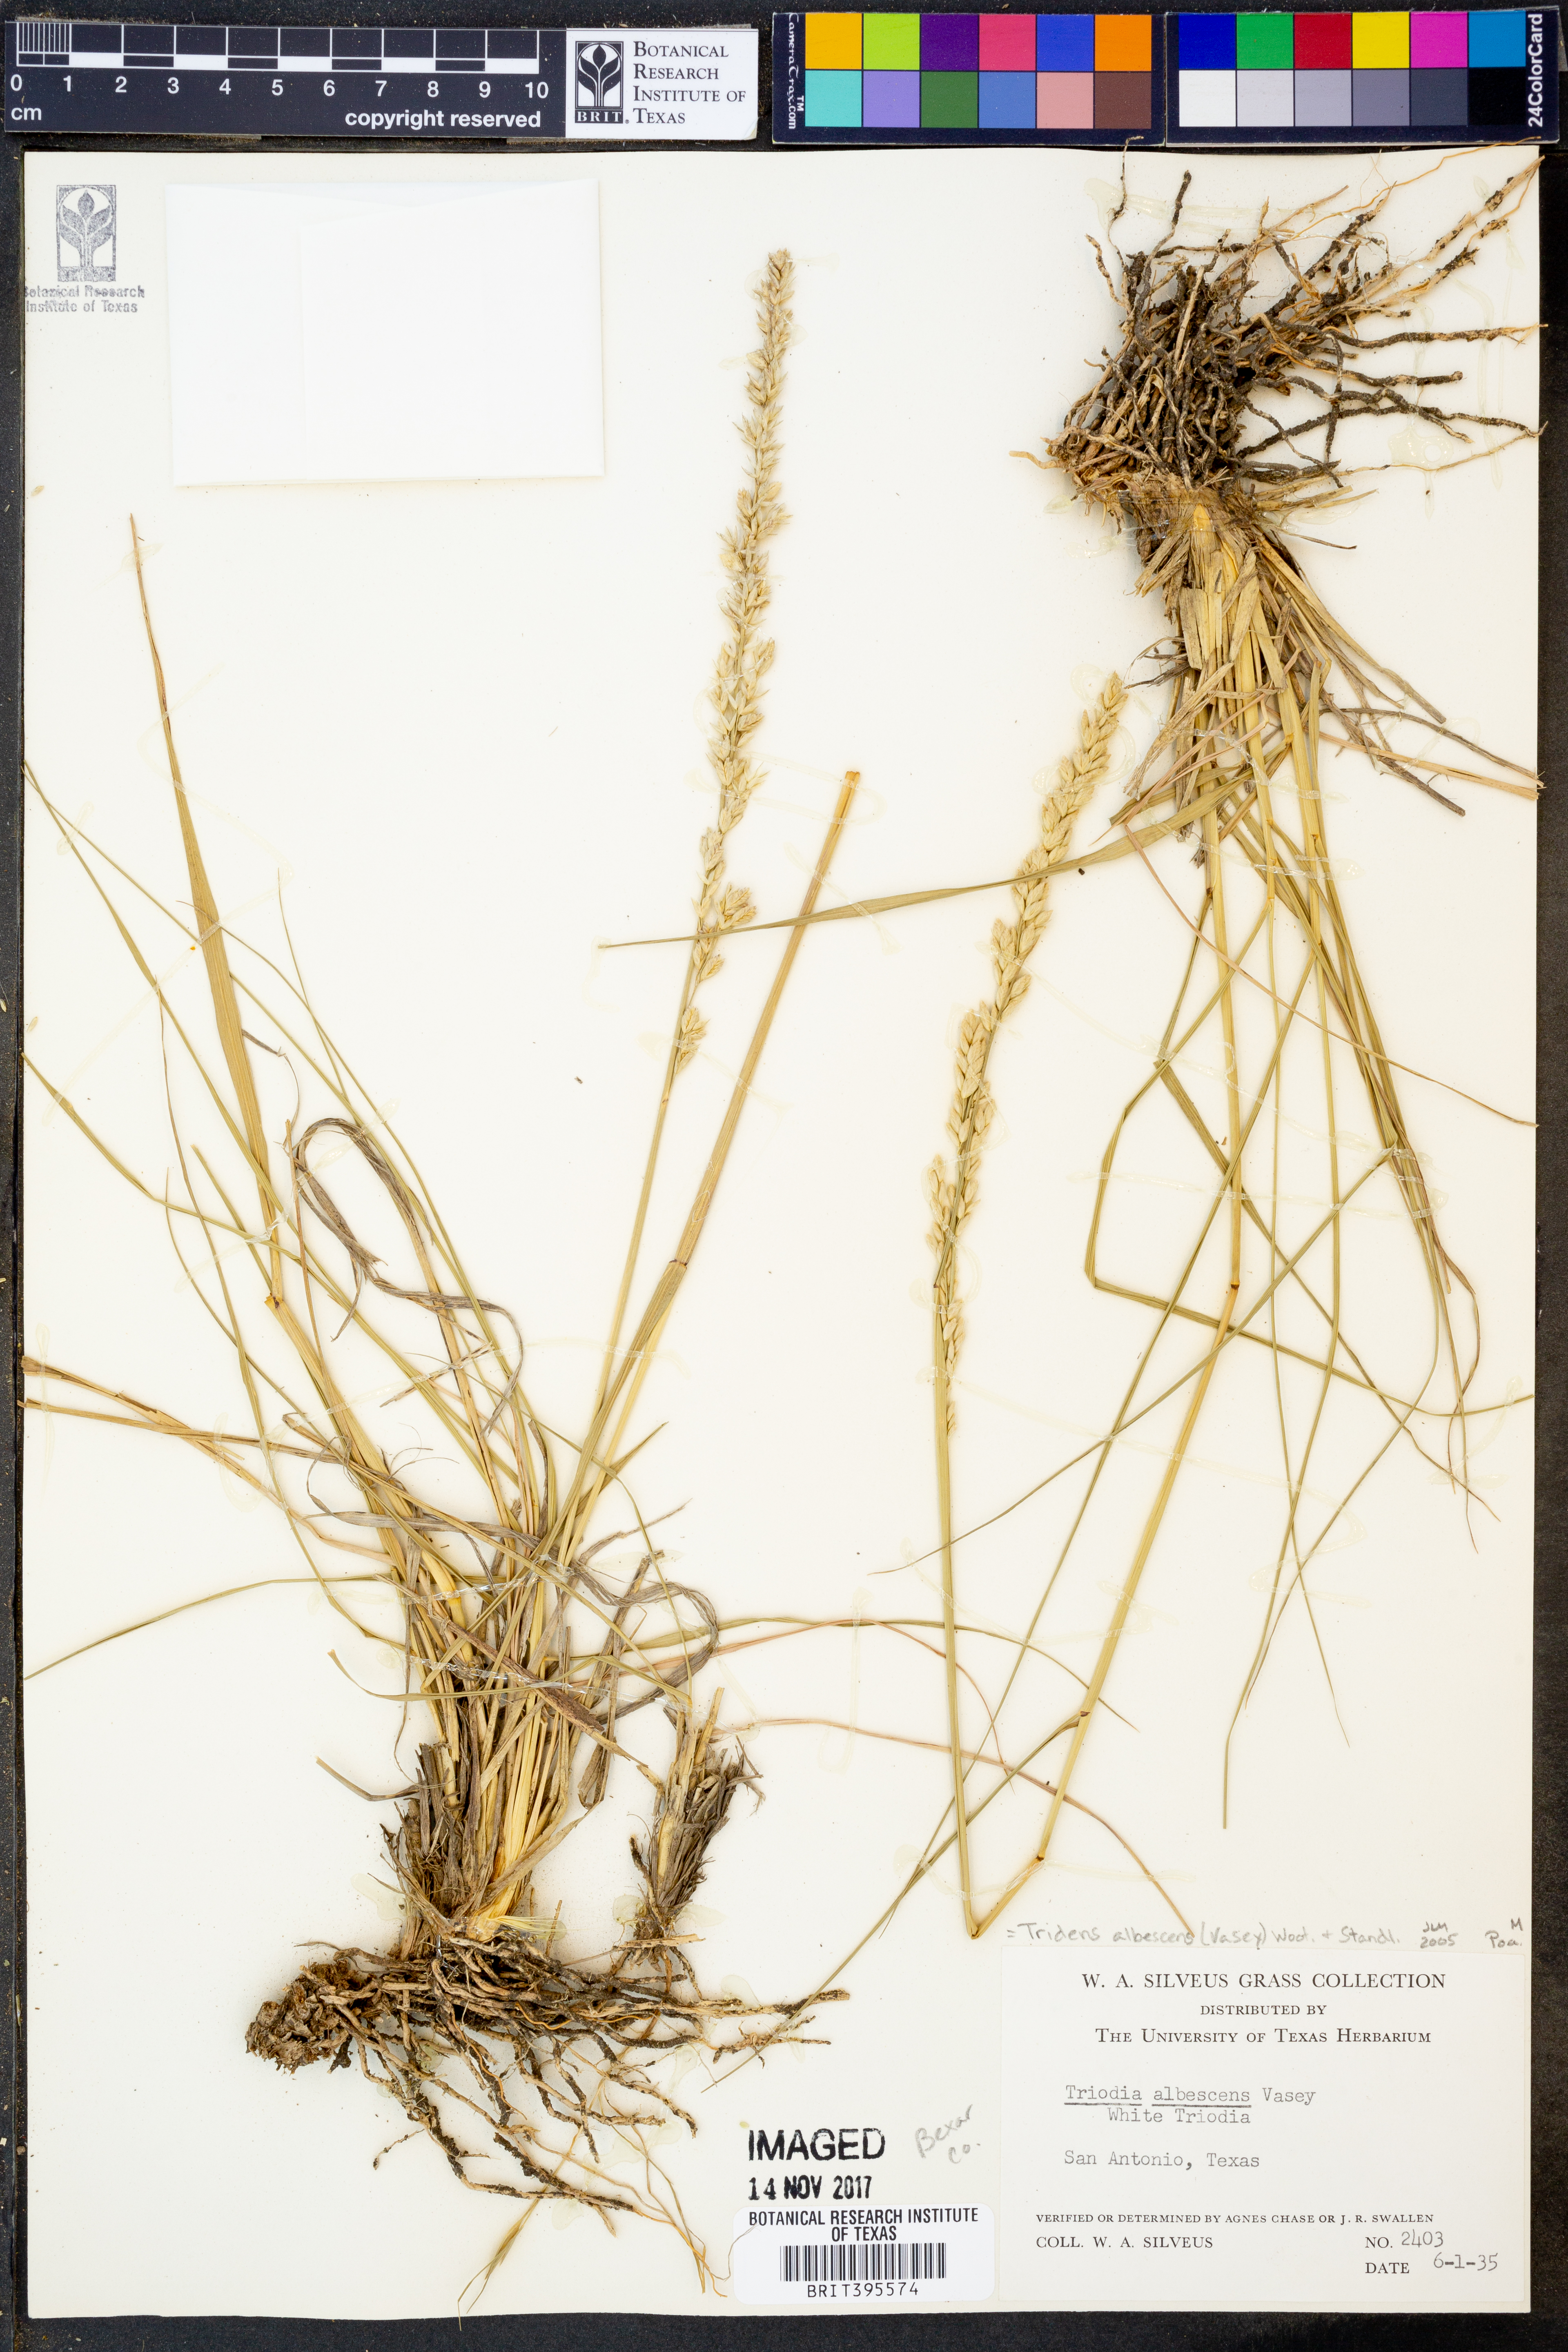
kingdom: Plantae
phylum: Tracheophyta
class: Liliopsida
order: Poales
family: Poaceae
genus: Tridens
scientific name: Tridens albescens
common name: White tridens
